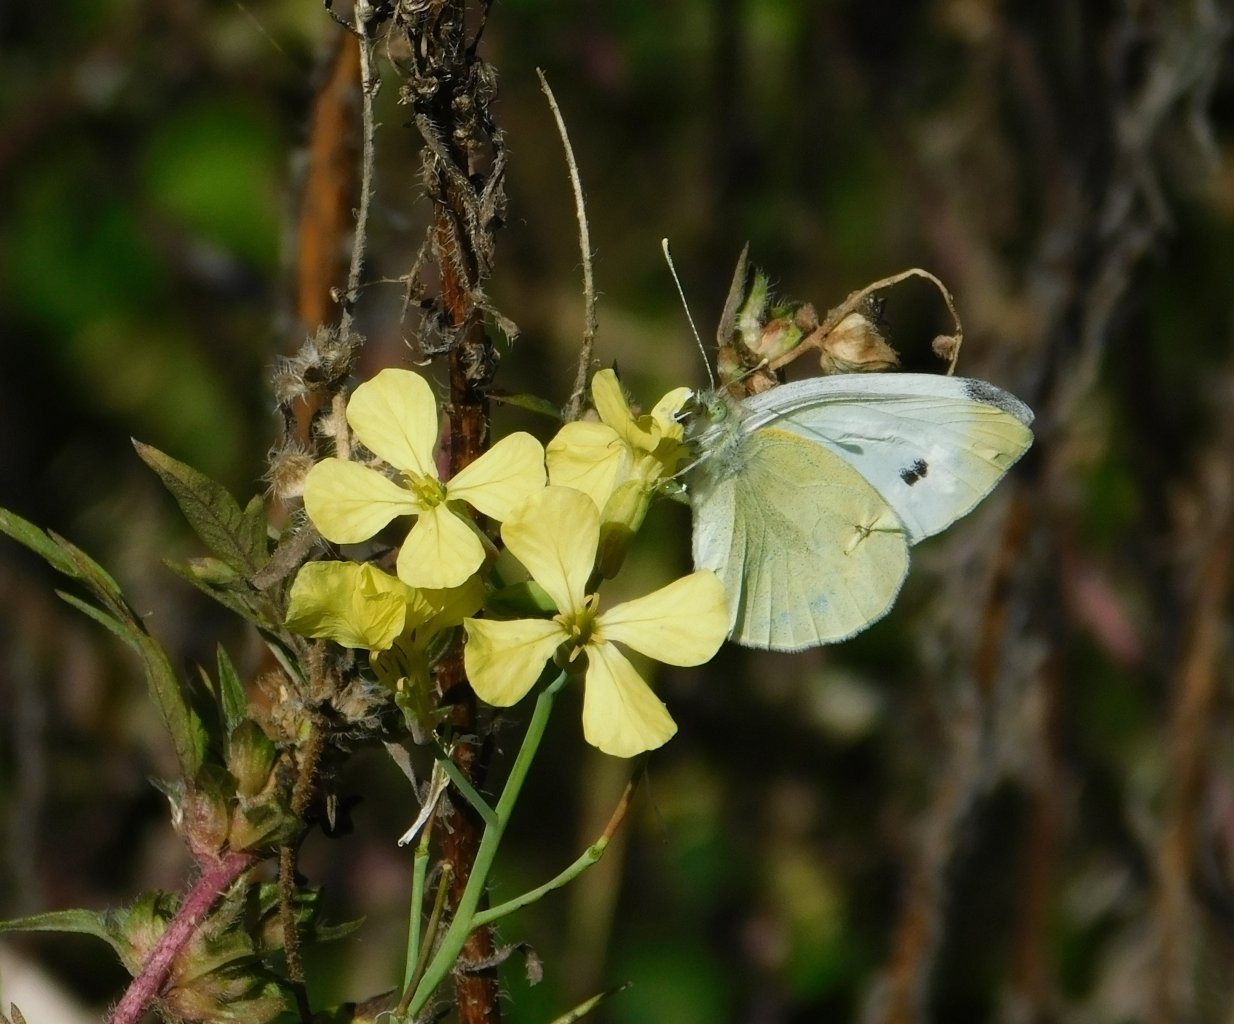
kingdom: Animalia
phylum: Arthropoda
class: Insecta
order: Lepidoptera
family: Pieridae
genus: Pieris
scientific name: Pieris rapae
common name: Cabbage White
